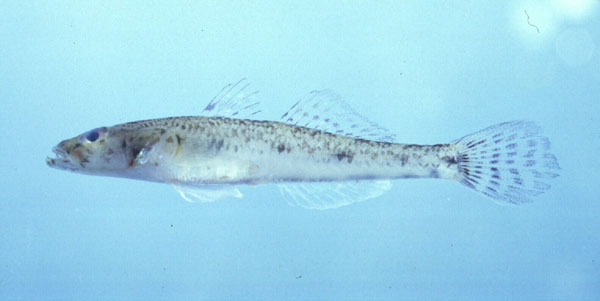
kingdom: Animalia
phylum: Chordata
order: Perciformes
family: Gobiidae
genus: Glossogobius
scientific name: Glossogobius giuris
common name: Tank goby
